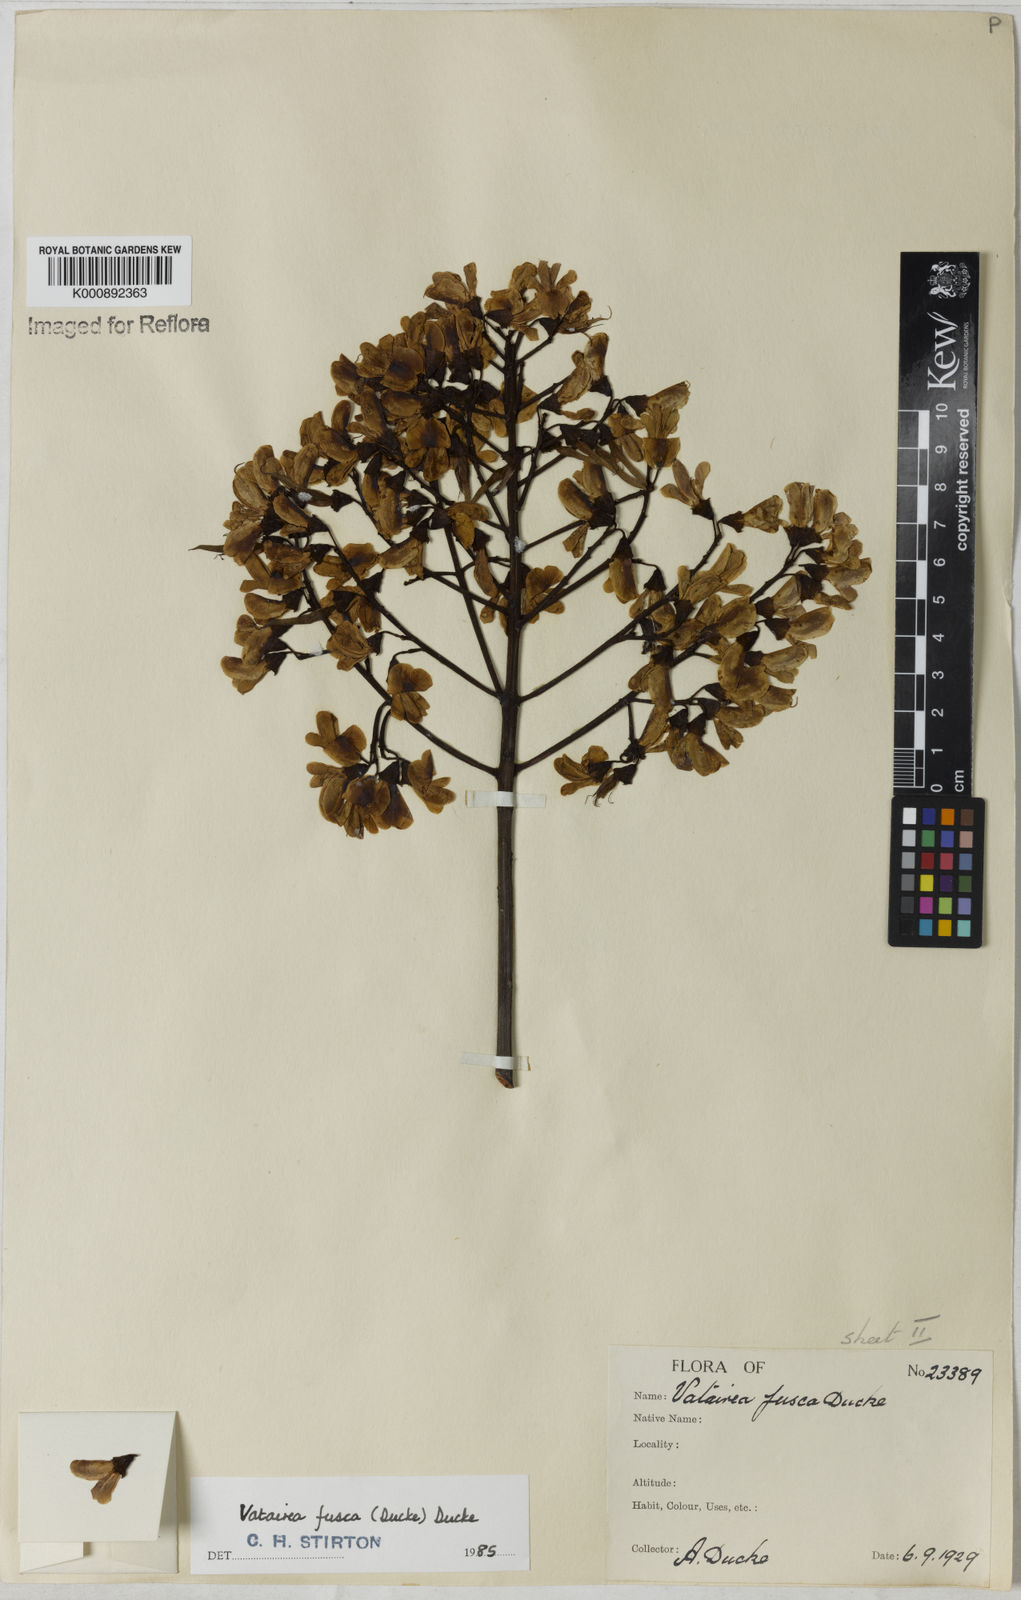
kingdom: Plantae
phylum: Tracheophyta
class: Magnoliopsida
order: Fabales
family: Fabaceae
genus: Vatairea
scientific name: Vatairea fusca
